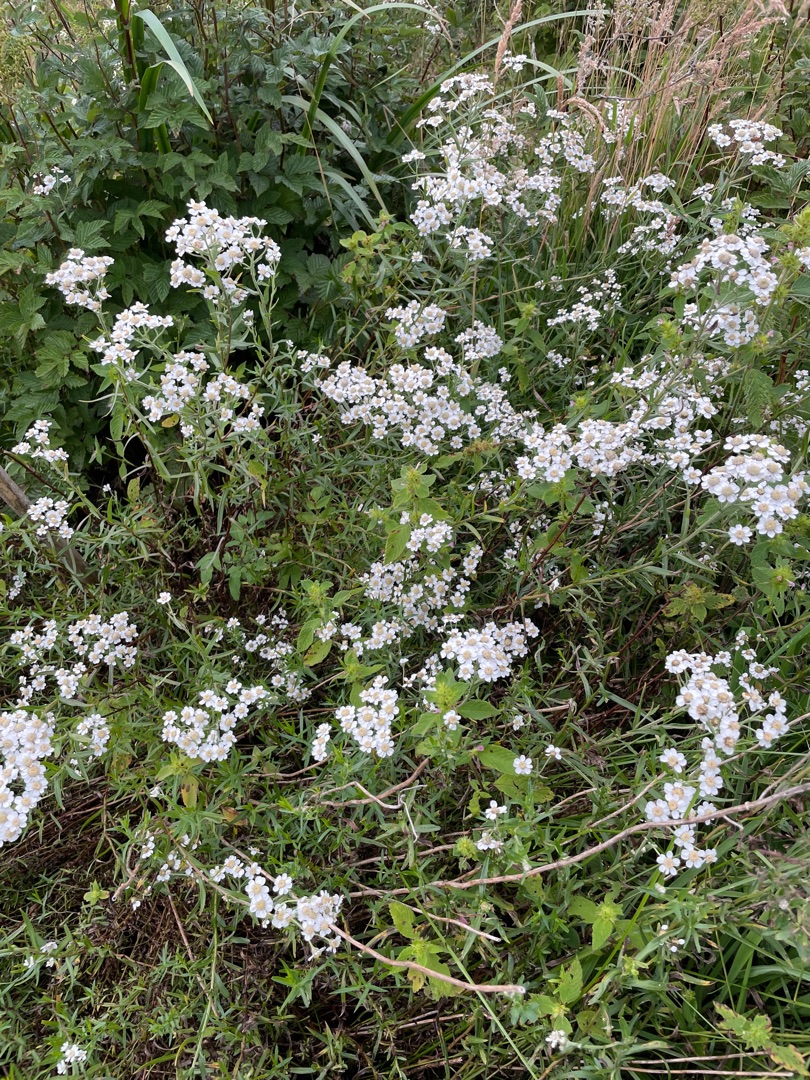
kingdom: Plantae
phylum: Tracheophyta
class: Magnoliopsida
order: Asterales
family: Asteraceae
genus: Achillea
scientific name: Achillea ptarmica
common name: Nyse-røllike
